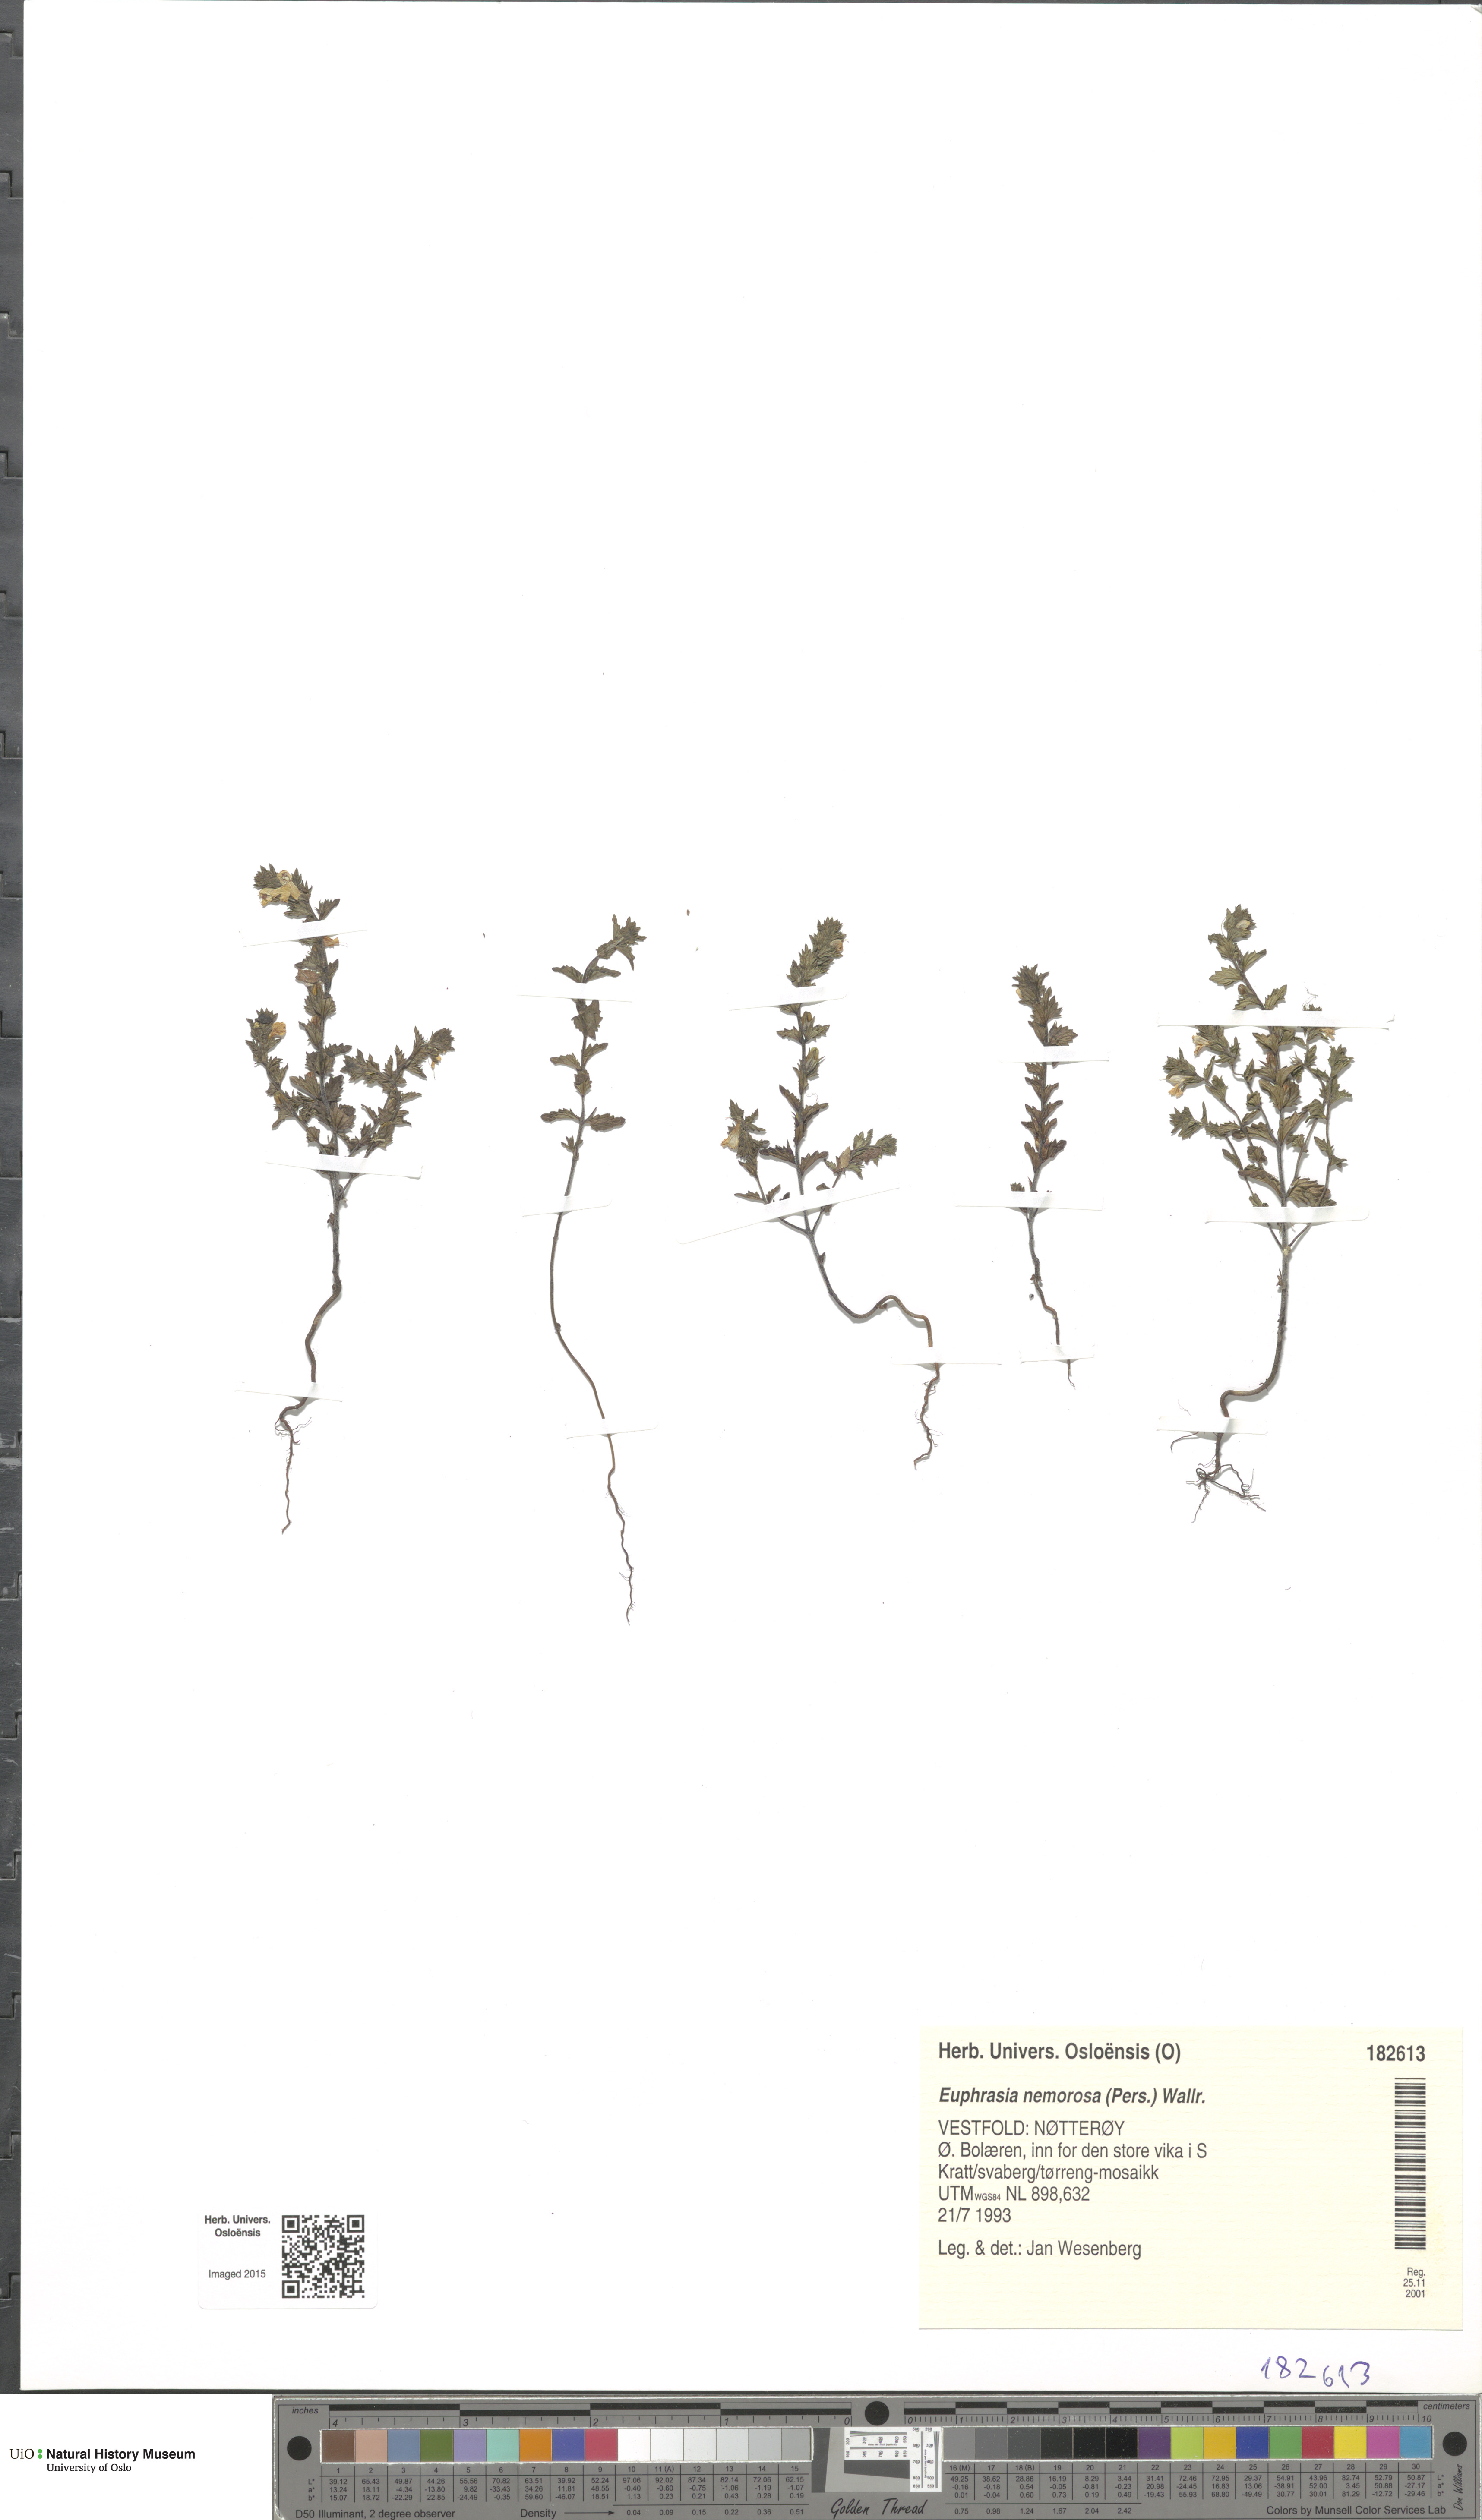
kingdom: Plantae
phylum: Tracheophyta
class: Magnoliopsida
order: Lamiales
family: Orobanchaceae
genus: Euphrasia
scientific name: Euphrasia nemorosa
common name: Common eyebright
